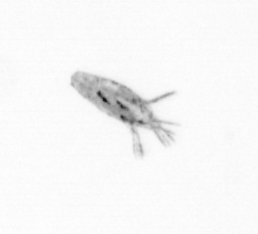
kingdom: Animalia
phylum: Arthropoda
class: Copepoda
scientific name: Copepoda
